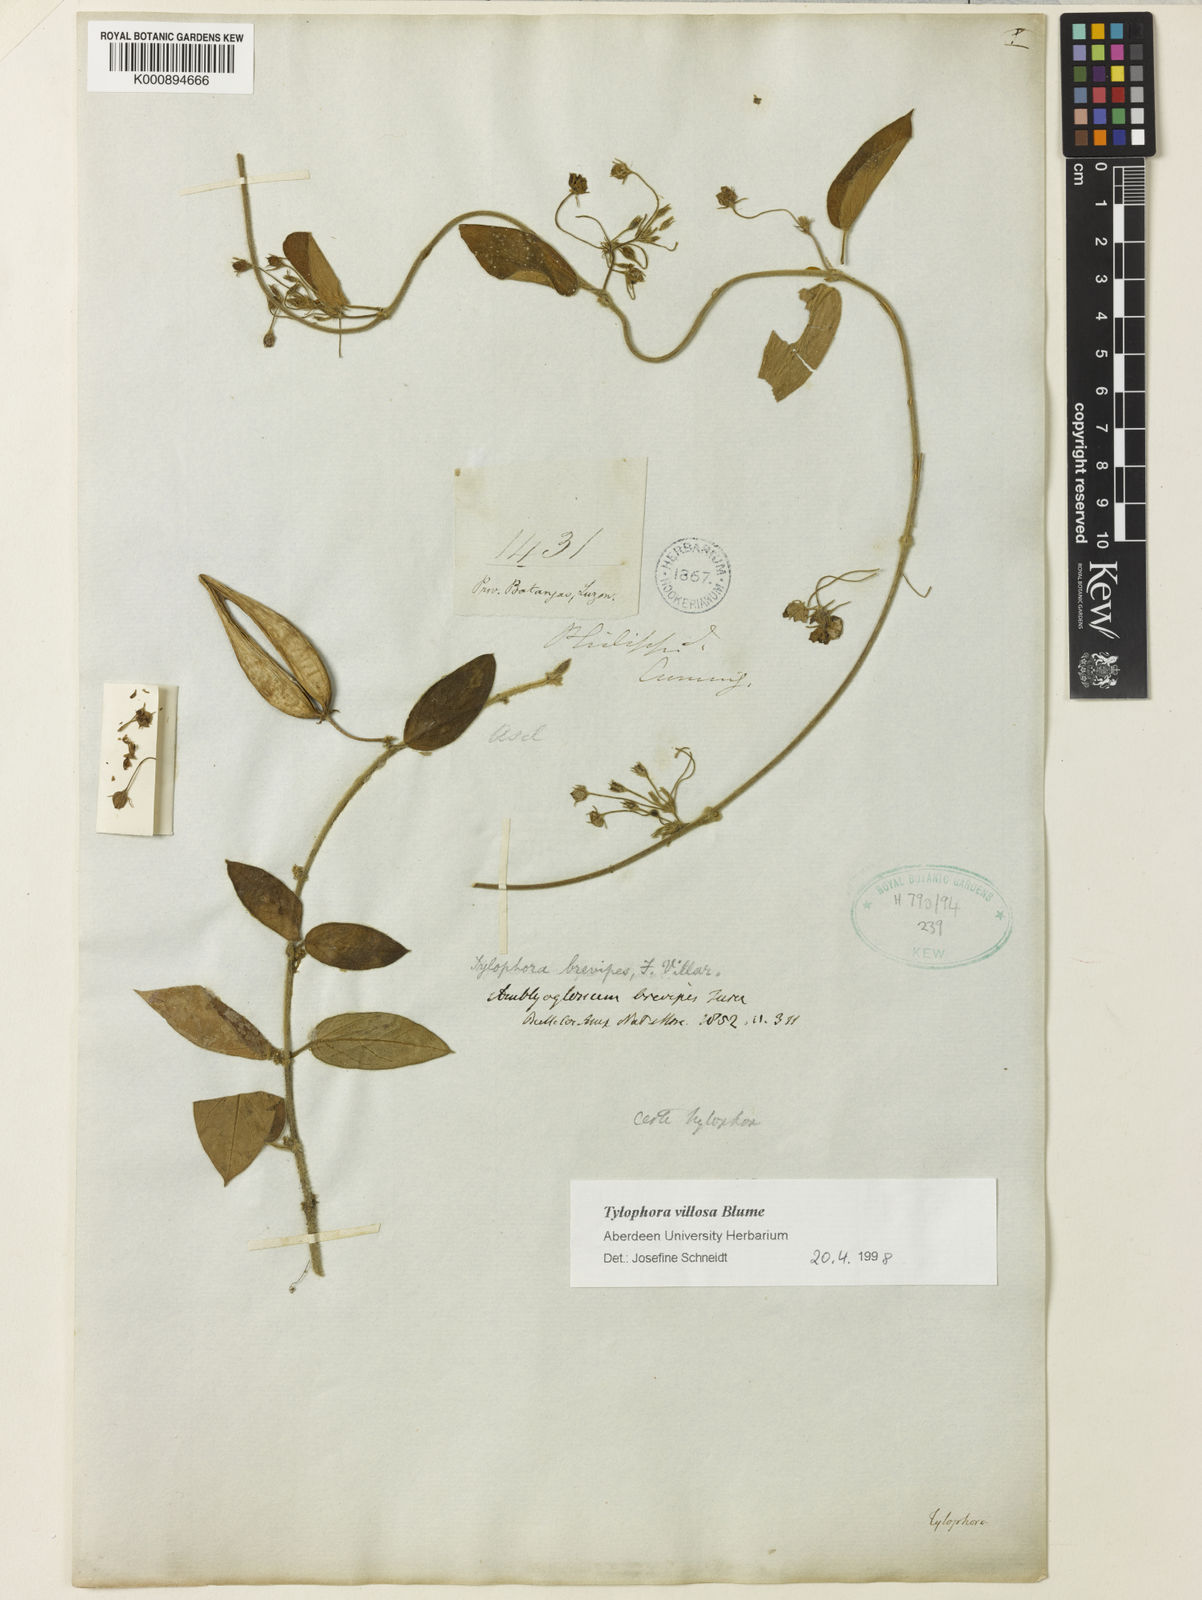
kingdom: Plantae
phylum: Tracheophyta
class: Magnoliopsida
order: Gentianales
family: Apocynaceae
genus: Vincetoxicum
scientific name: Vincetoxicum brevipes
